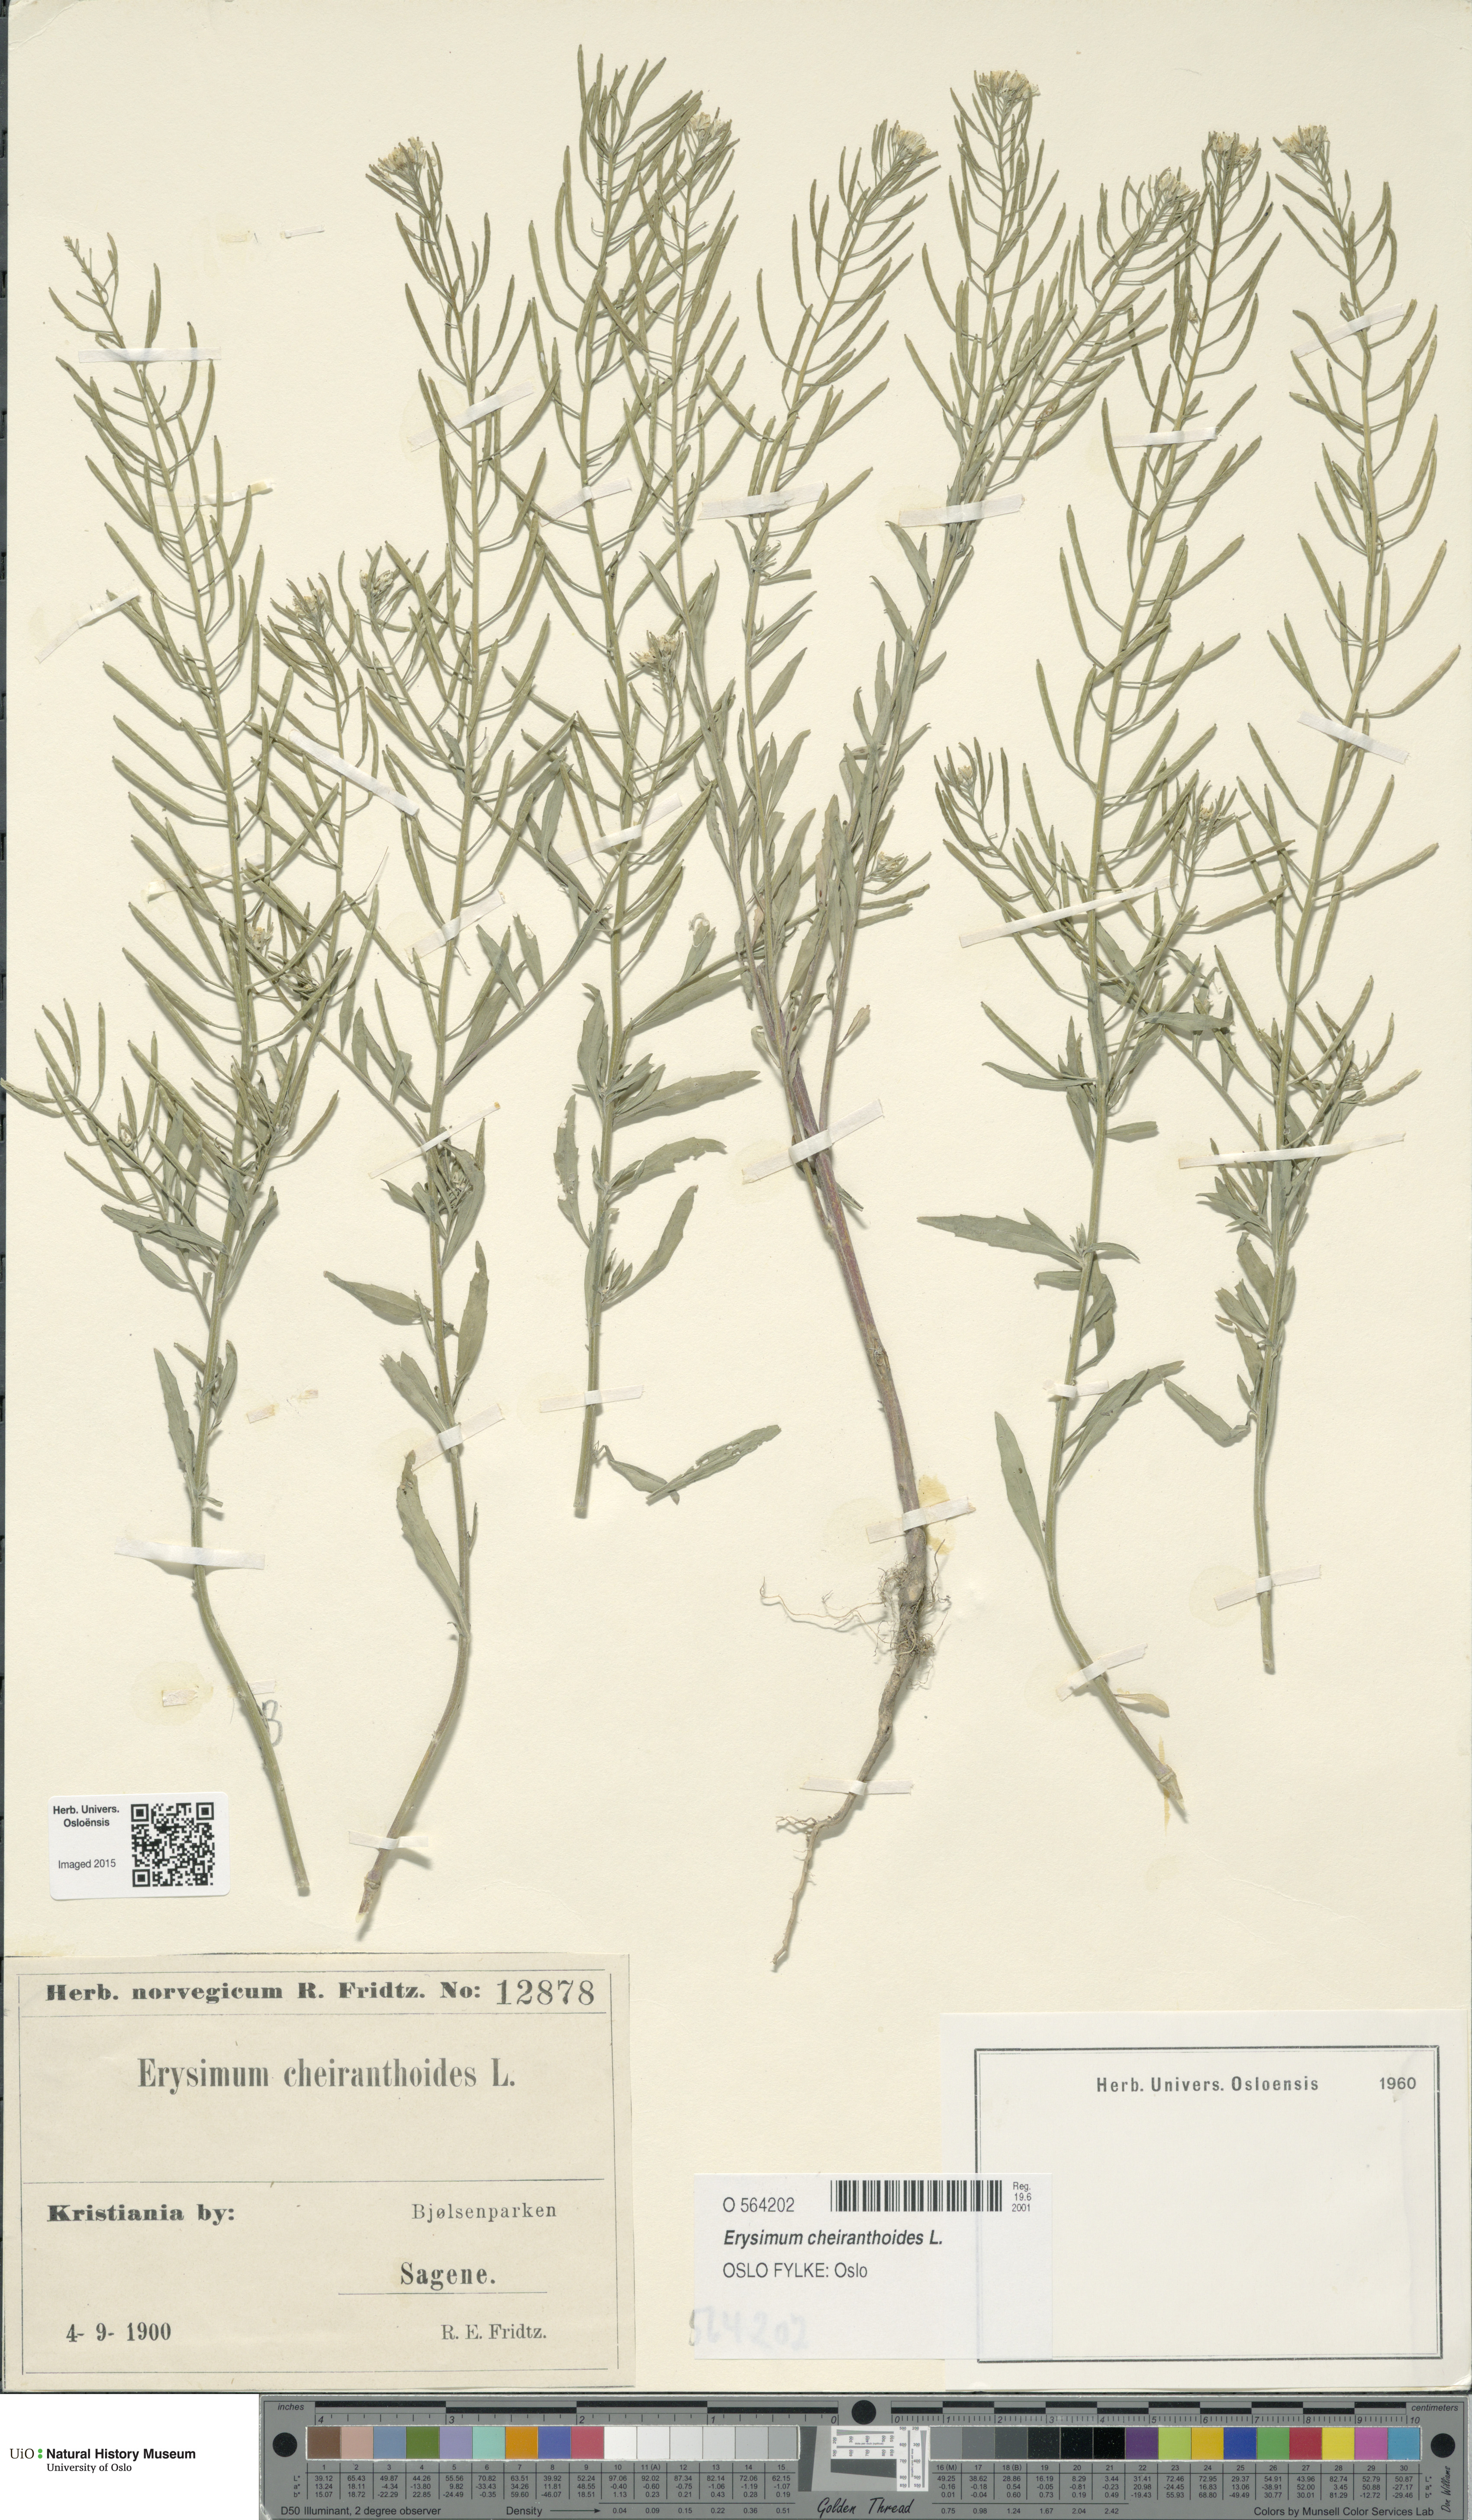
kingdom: Plantae
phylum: Tracheophyta
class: Magnoliopsida
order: Brassicales
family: Brassicaceae
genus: Erysimum
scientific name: Erysimum cheiranthoides
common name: Treacle mustard
